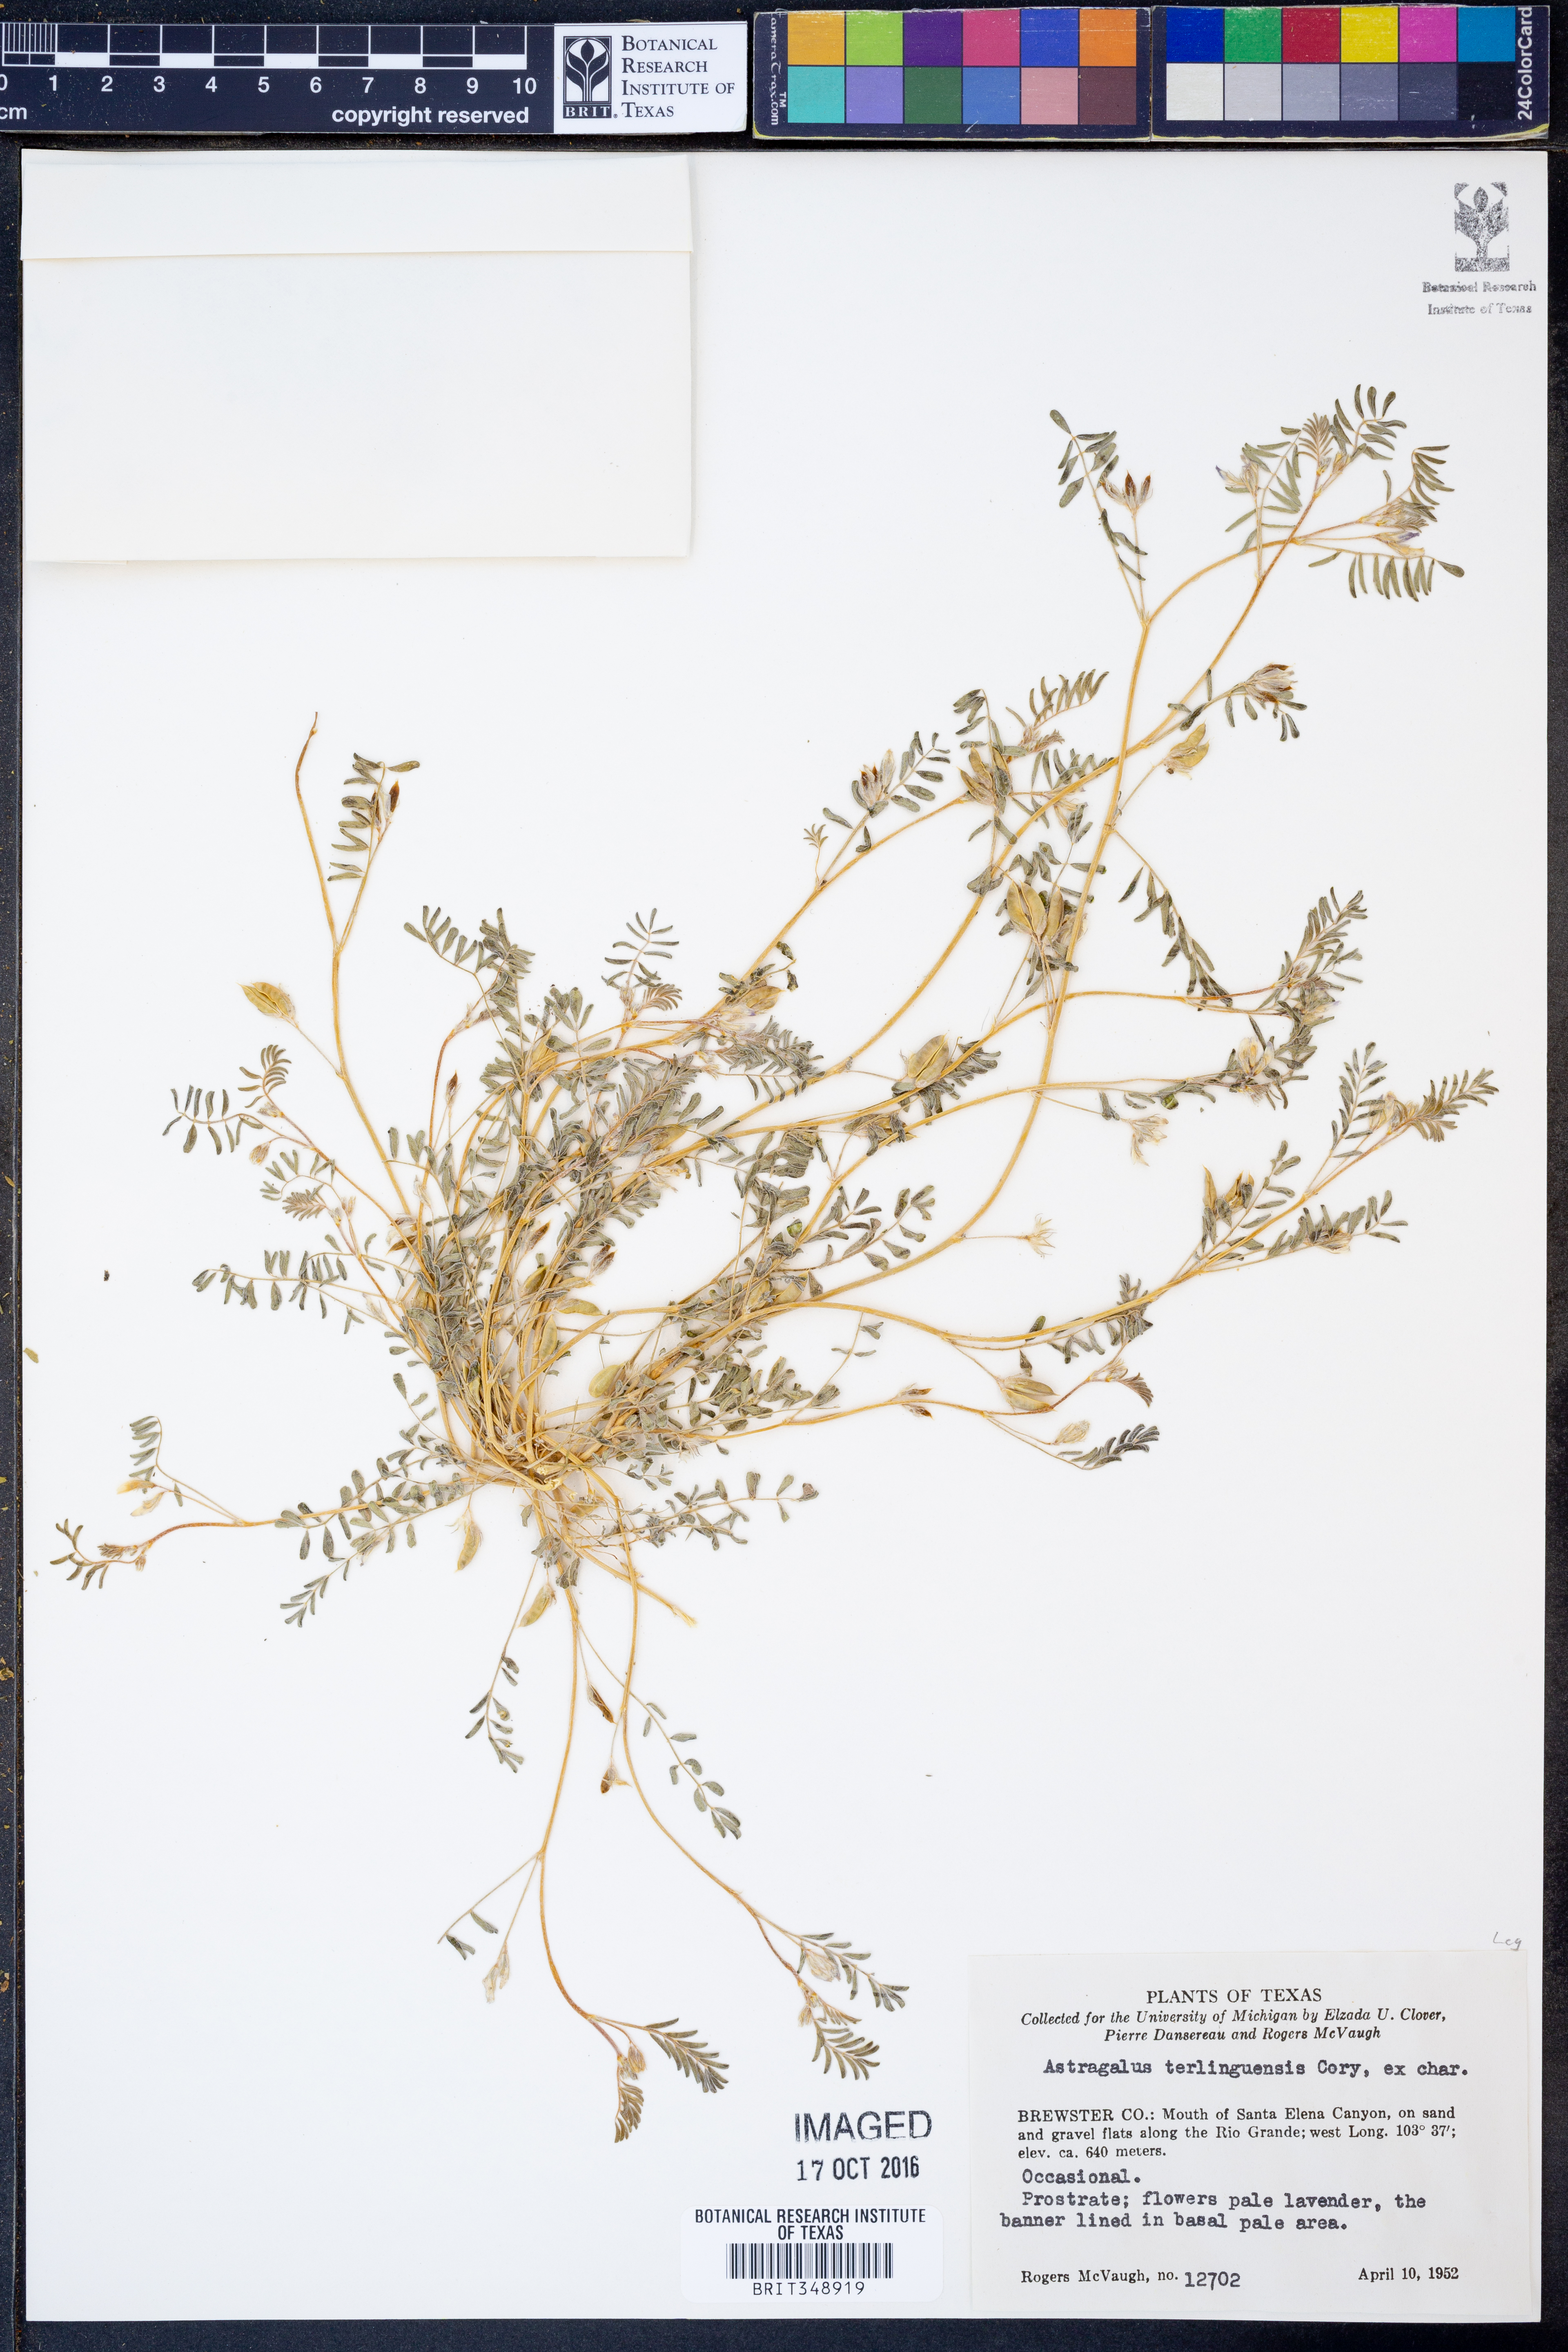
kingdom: Plantae
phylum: Tracheophyta
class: Magnoliopsida
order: Fabales
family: Fabaceae
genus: Astragalus
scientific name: Astragalus emoryanus
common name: Emory's milk-vetch
